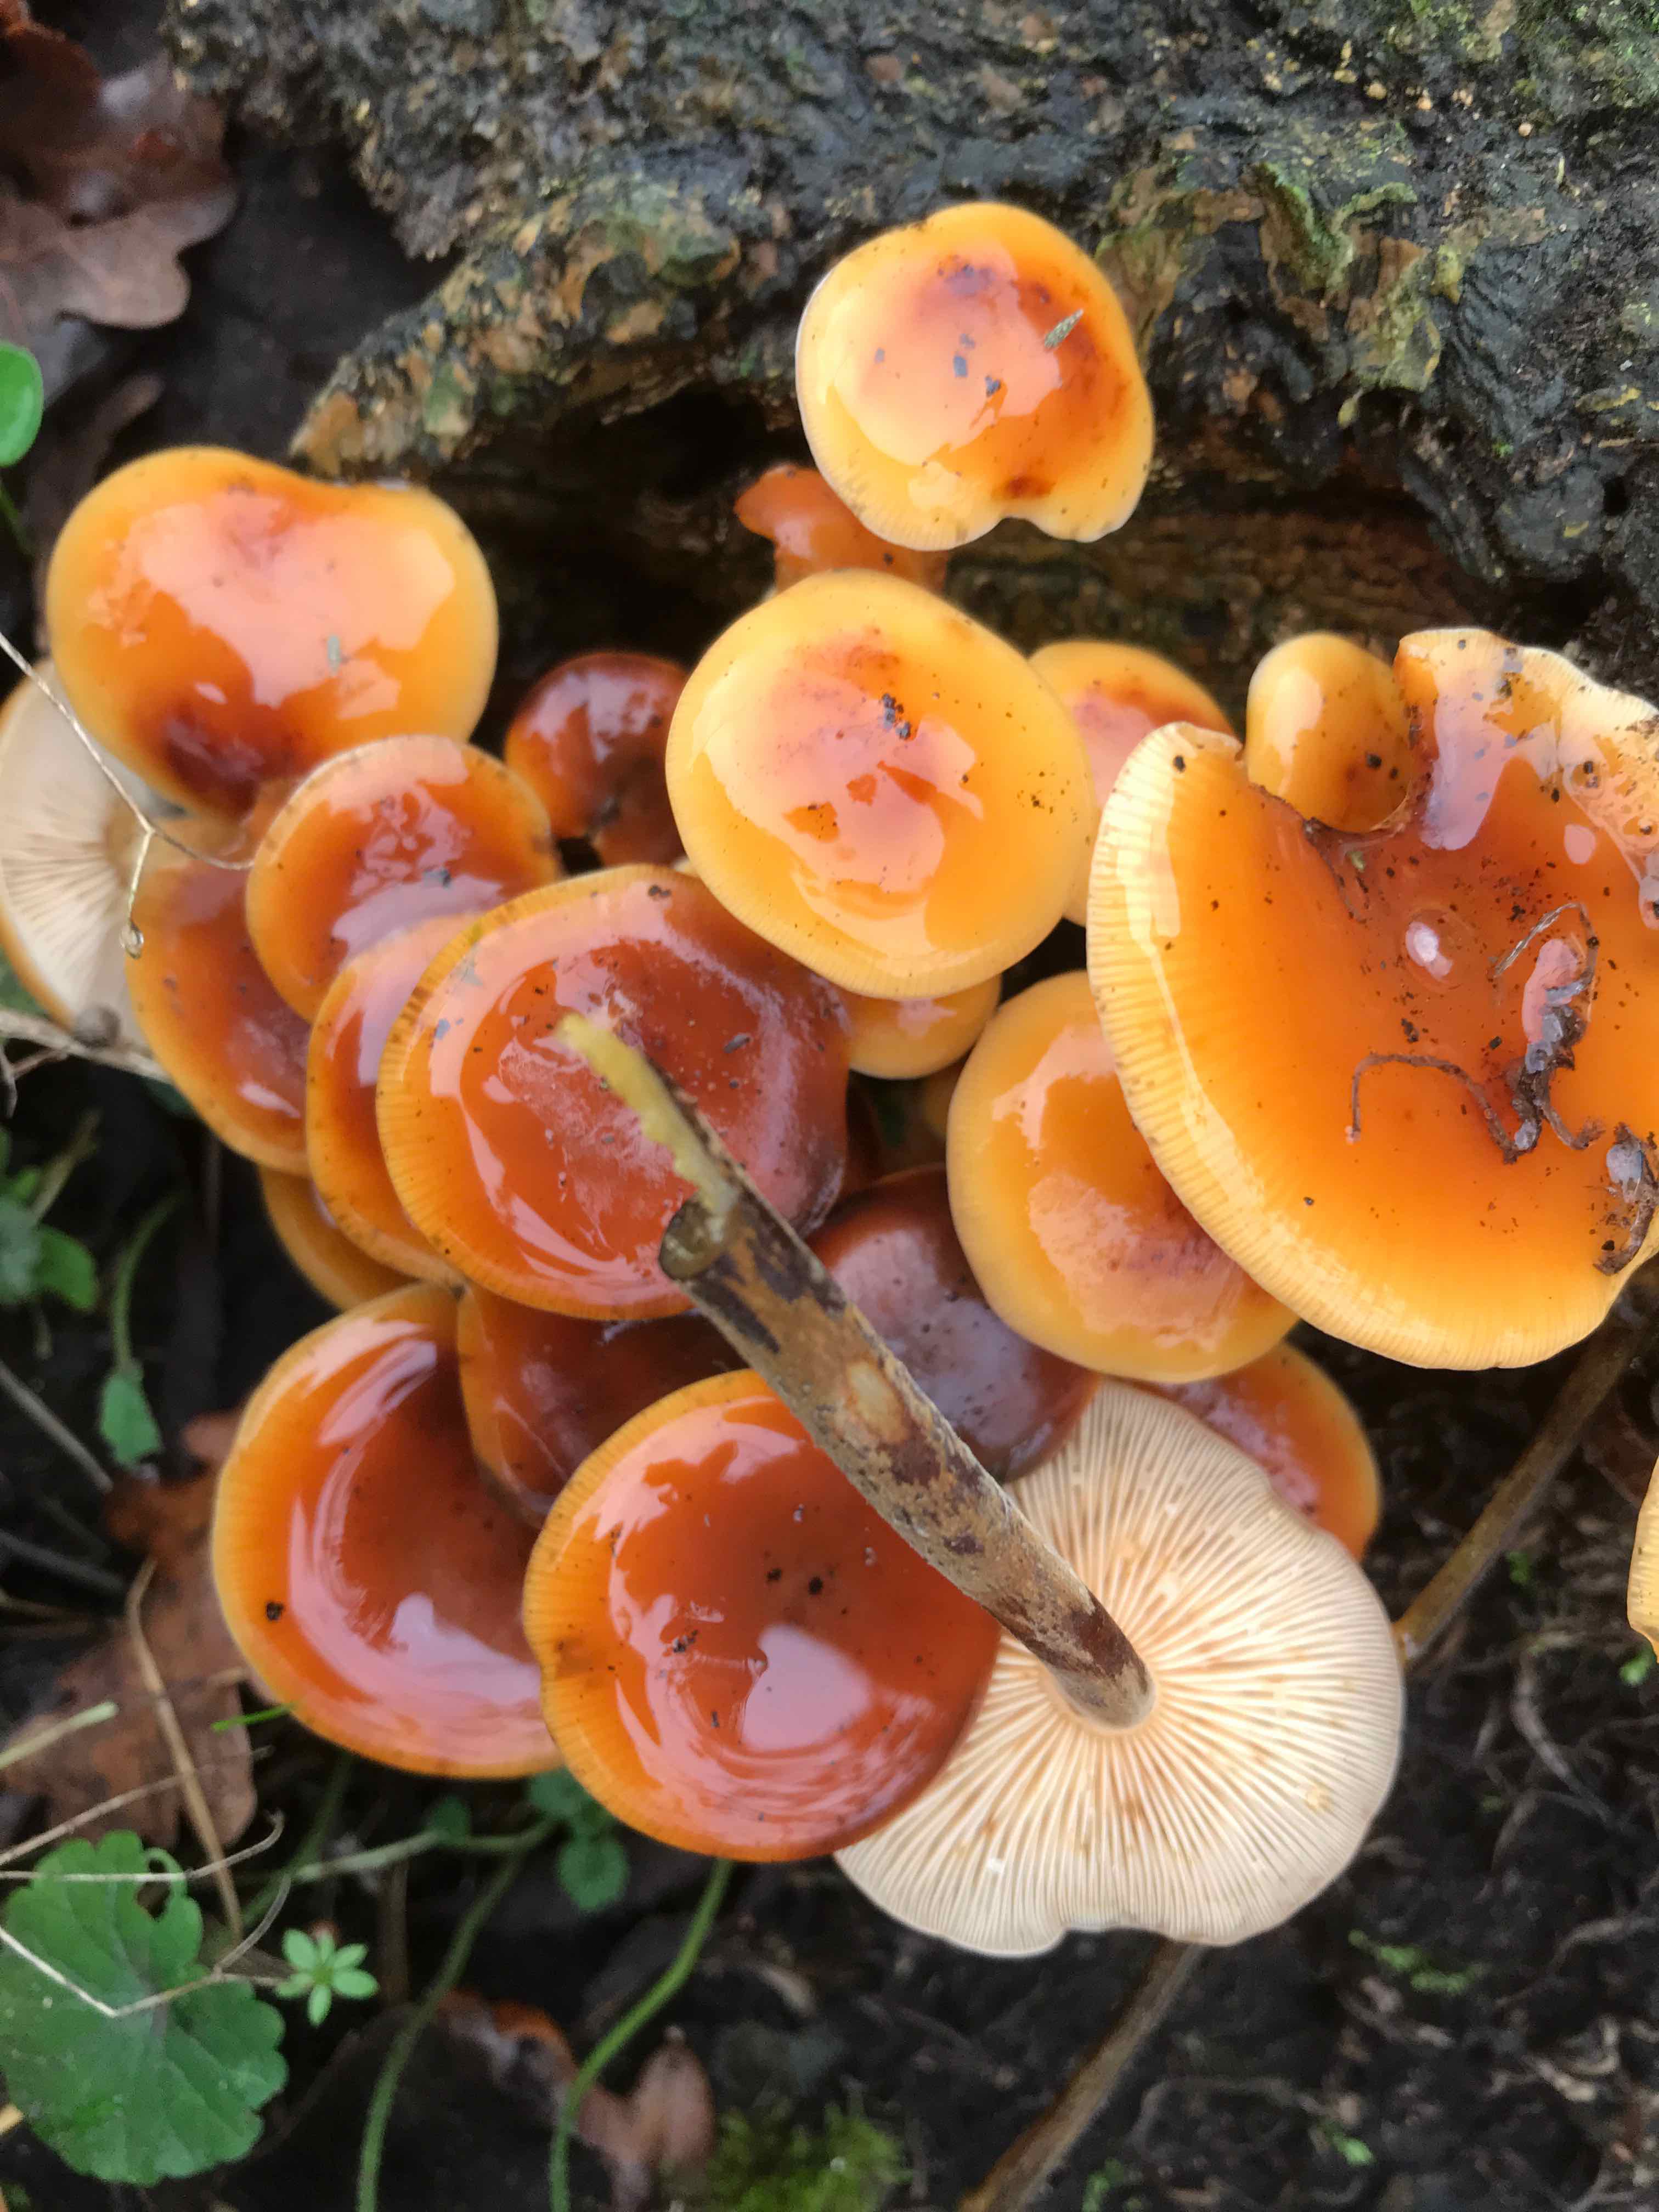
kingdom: Fungi
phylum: Basidiomycota
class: Agaricomycetes
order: Agaricales
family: Physalacriaceae
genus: Flammulina
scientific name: Flammulina
